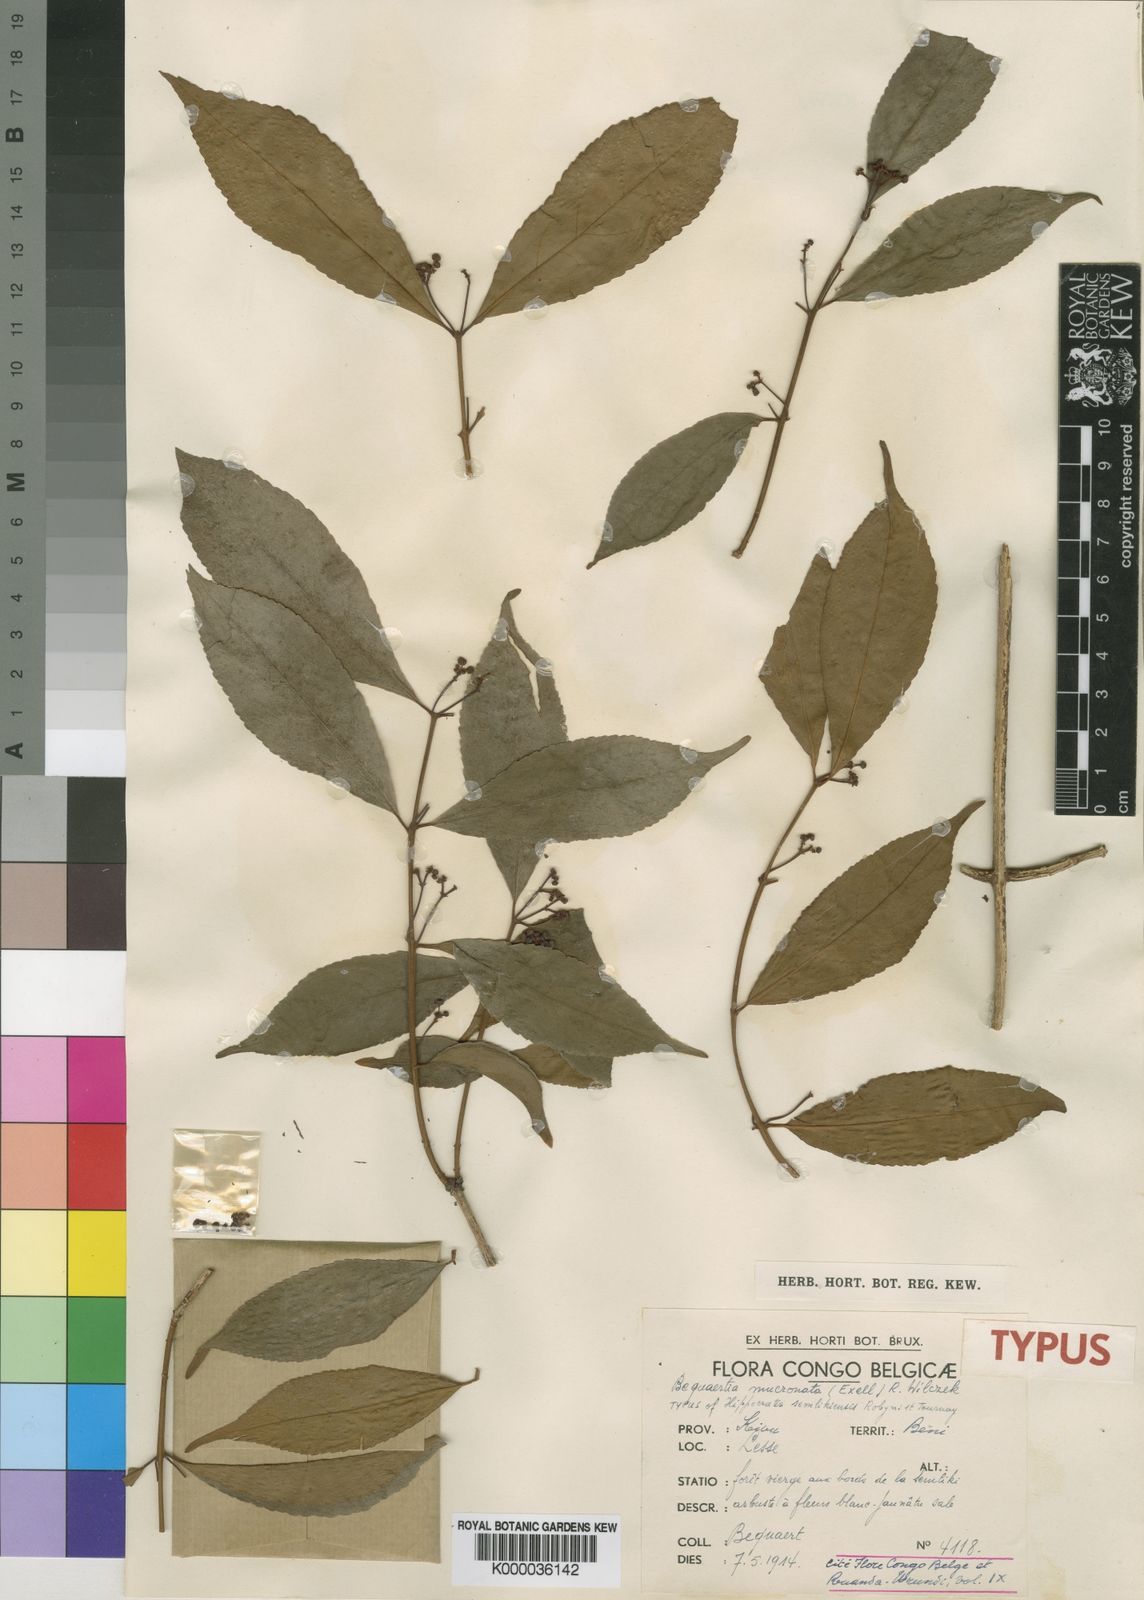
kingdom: Plantae
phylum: Tracheophyta
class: Magnoliopsida
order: Celastrales
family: Celastraceae
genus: Bequaertia
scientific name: Bequaertia mucronata
